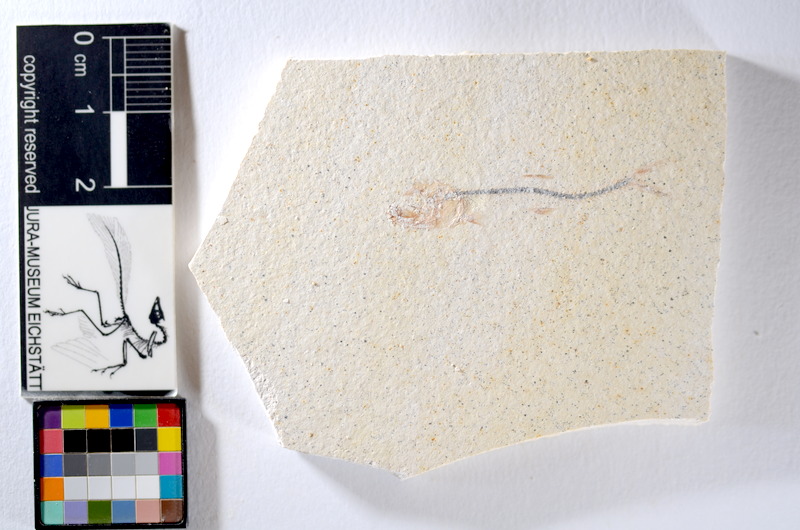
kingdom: Animalia
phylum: Chordata
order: Salmoniformes
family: Orthogonikleithridae
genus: Orthogonikleithrus
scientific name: Orthogonikleithrus hoelli
